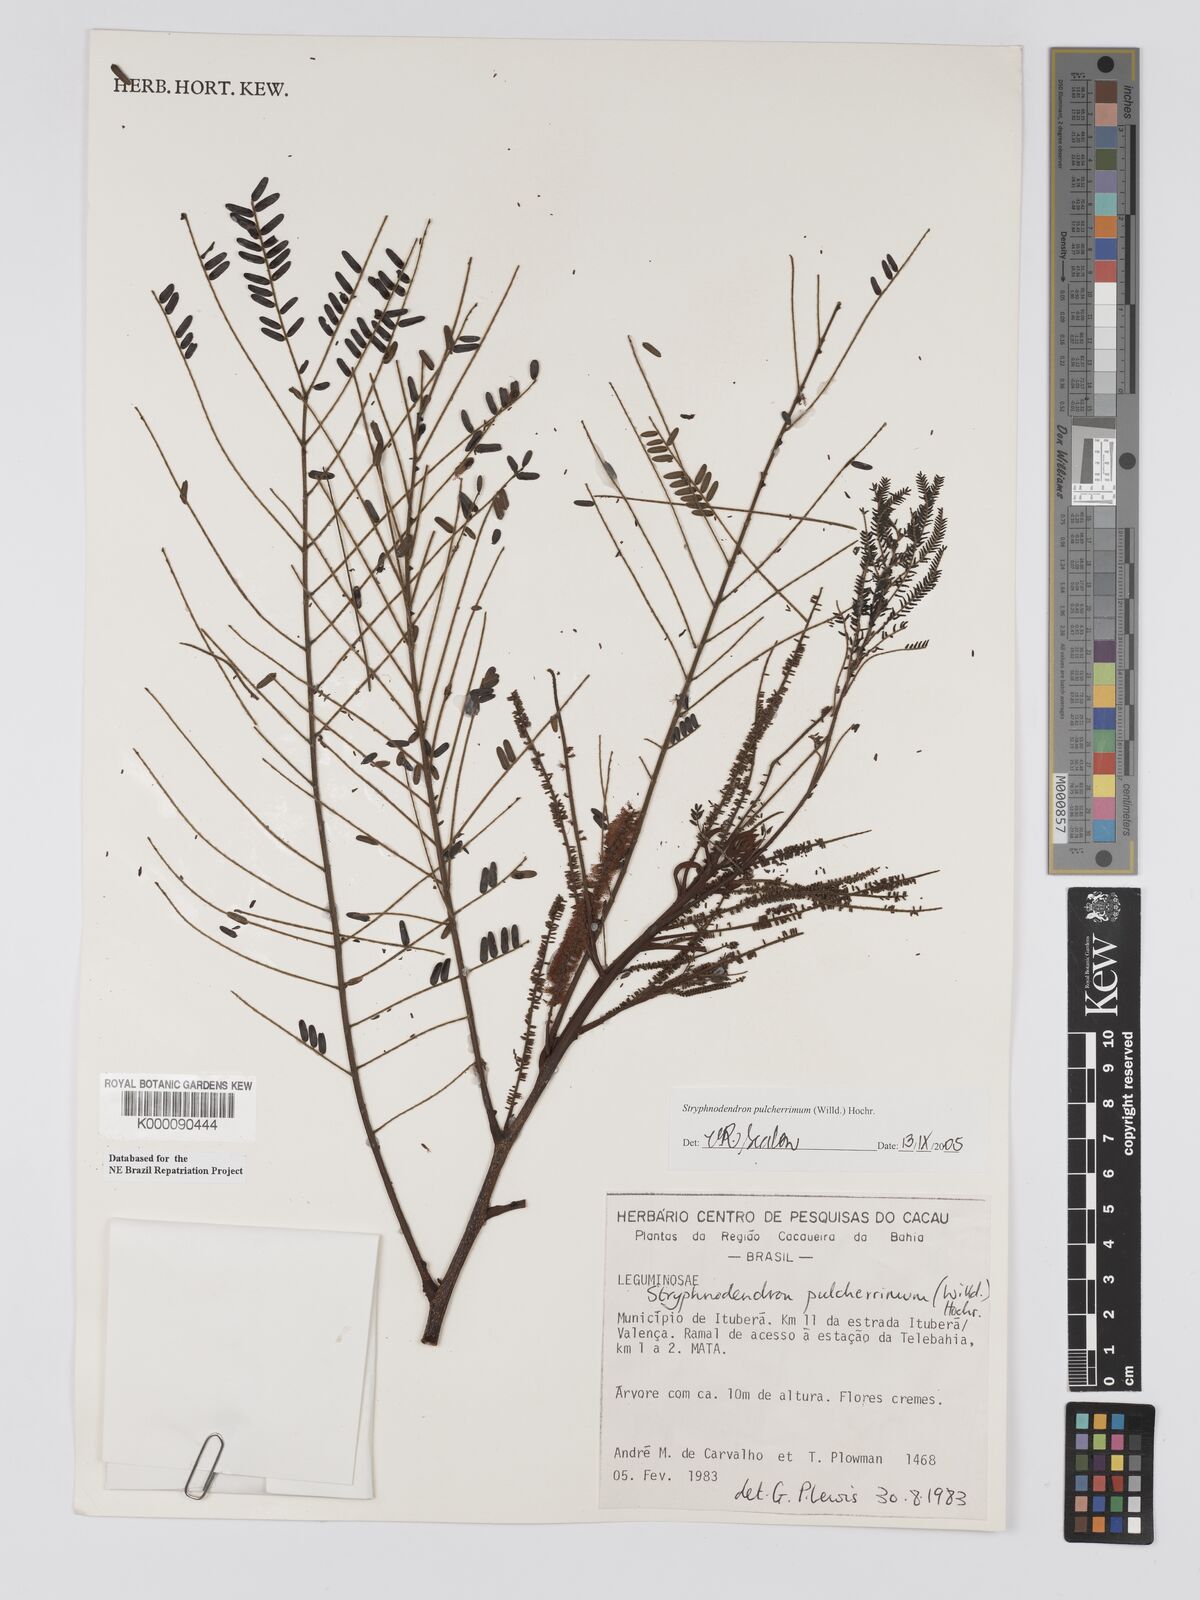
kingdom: Plantae
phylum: Tracheophyta
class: Magnoliopsida
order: Fabales
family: Fabaceae
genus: Stryphnodendron
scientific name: Stryphnodendron pulcherrimum
